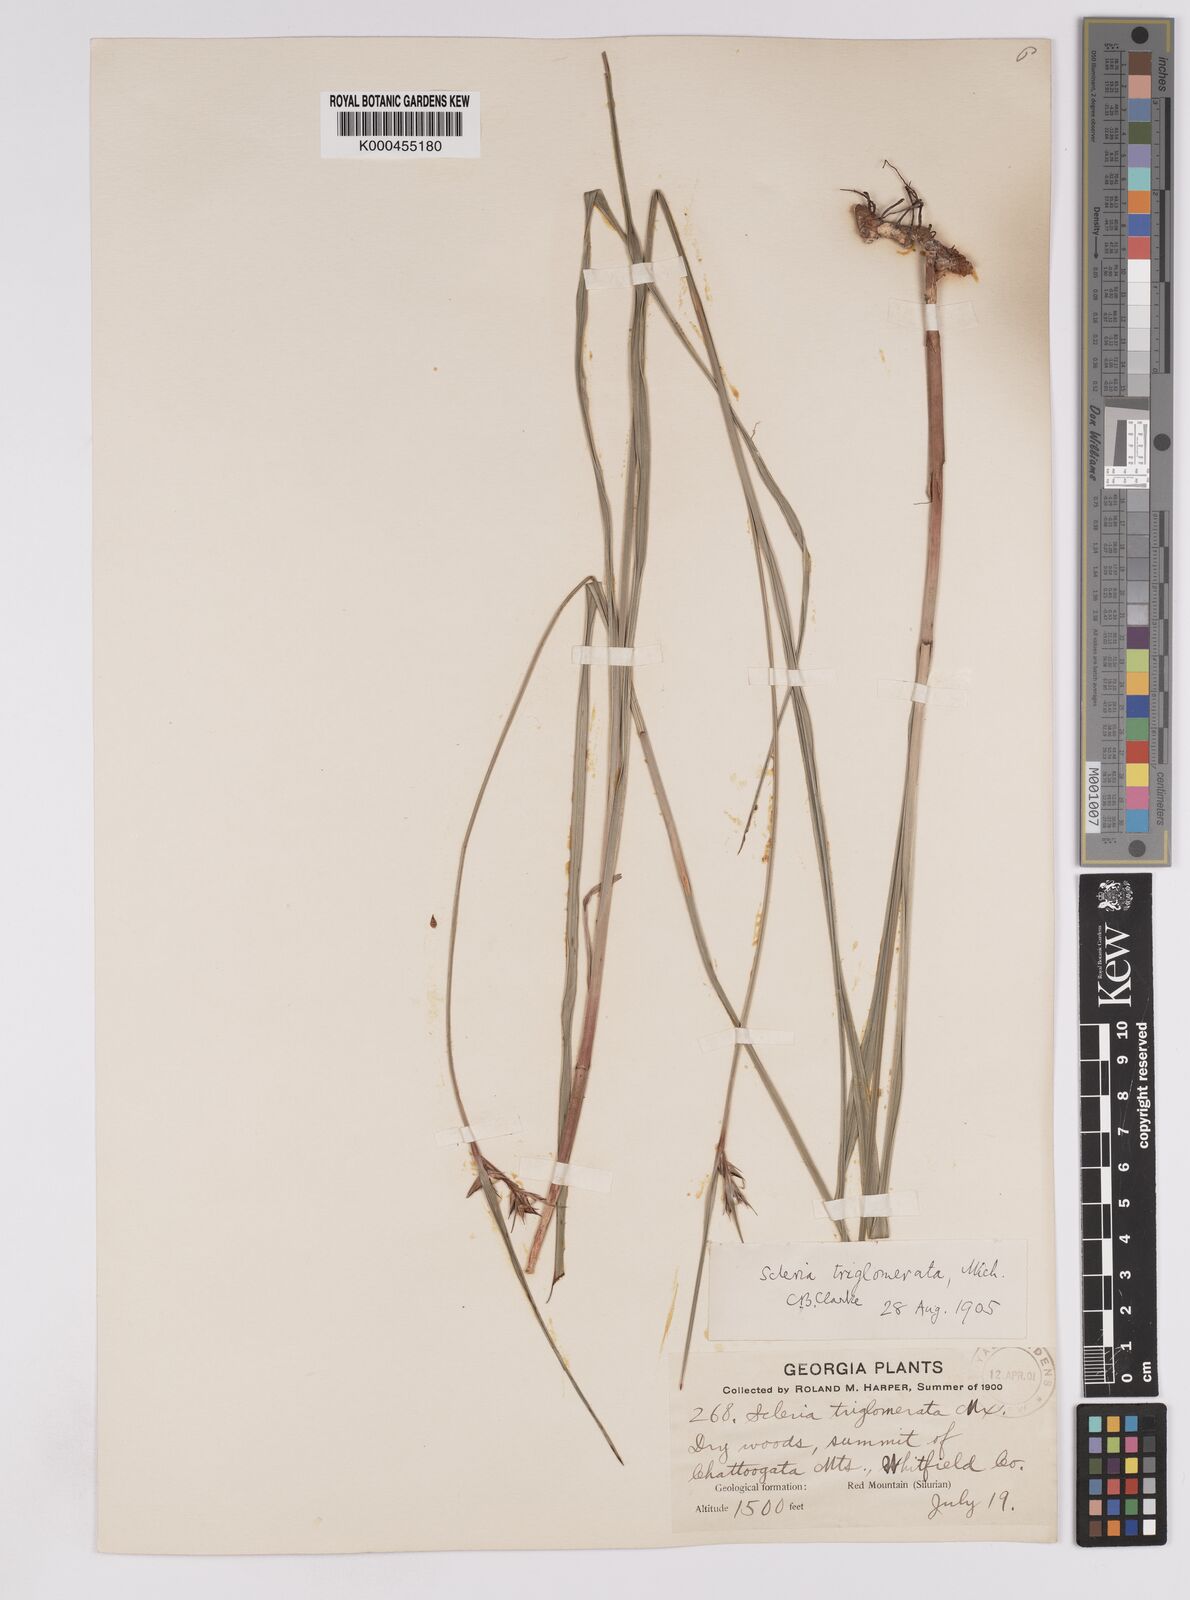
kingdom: Plantae
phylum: Tracheophyta
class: Liliopsida
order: Poales
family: Cyperaceae
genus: Scleria
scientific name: Scleria triglomerata
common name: Whip nutrush
